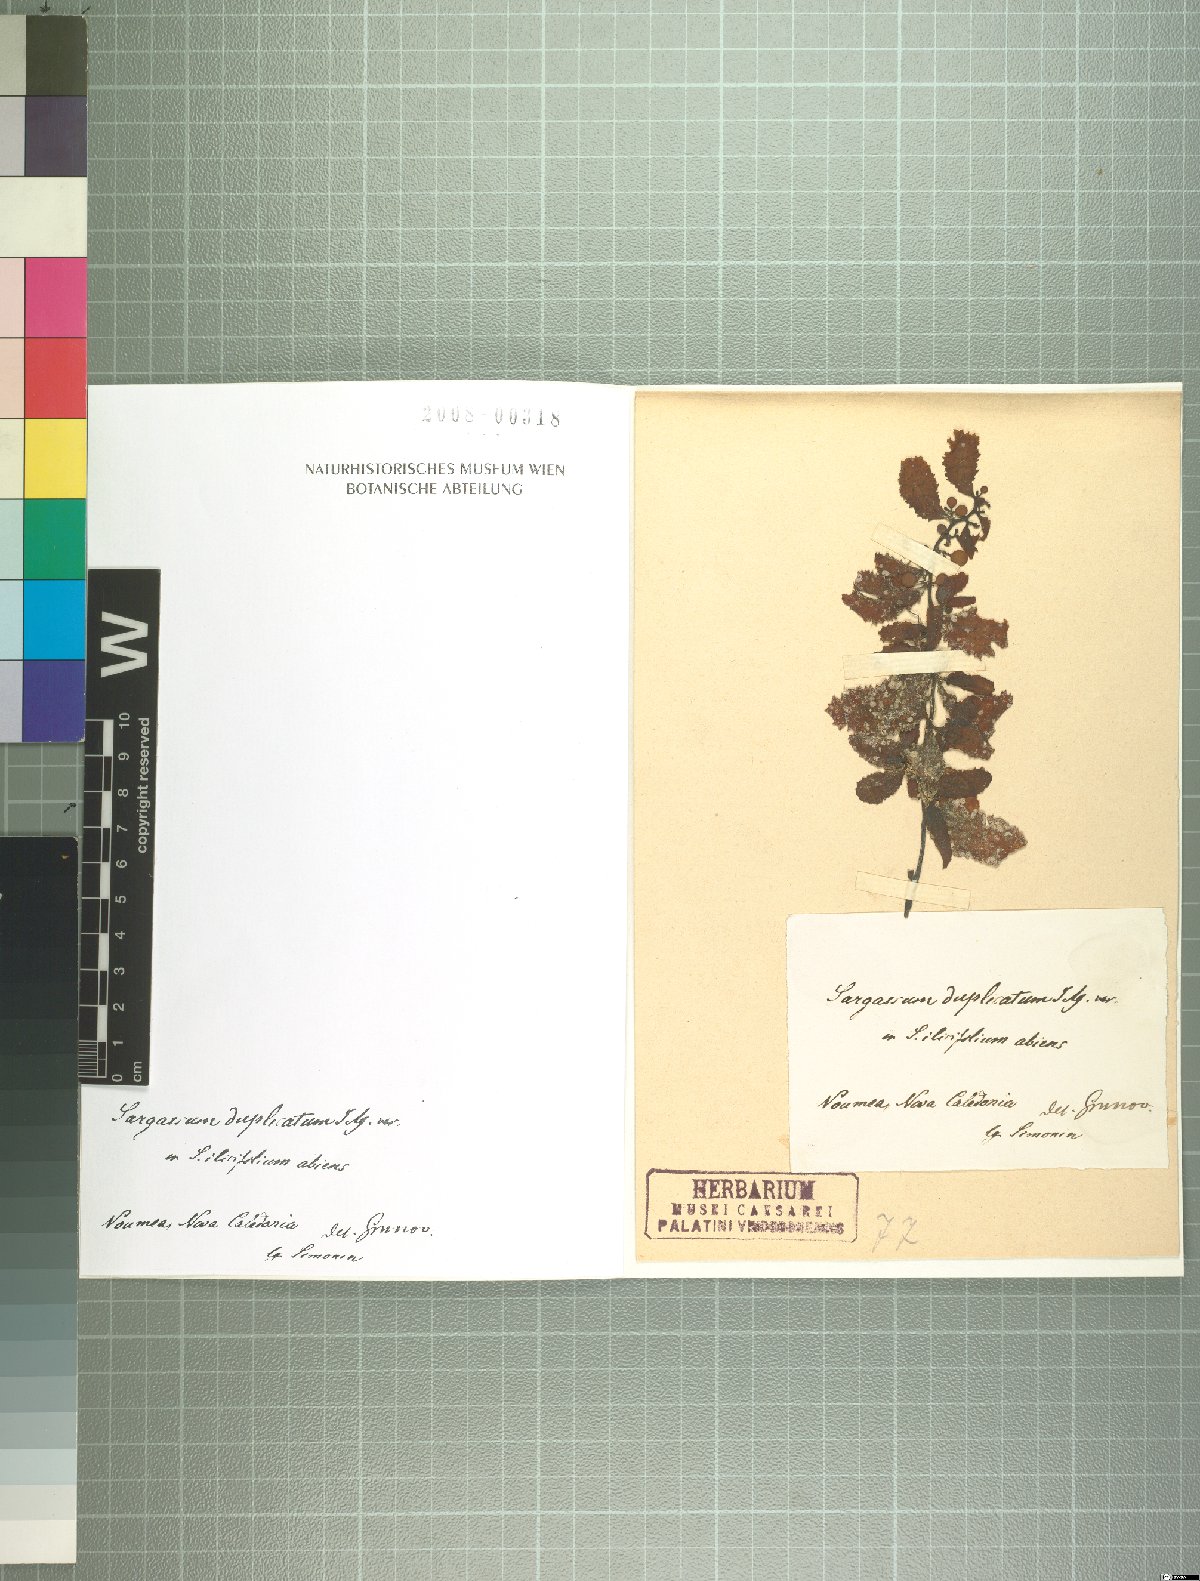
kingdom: Chromista
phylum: Ochrophyta
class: Phaeophyceae
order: Fucales
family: Sargassaceae
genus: Sargassum
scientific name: Sargassum
